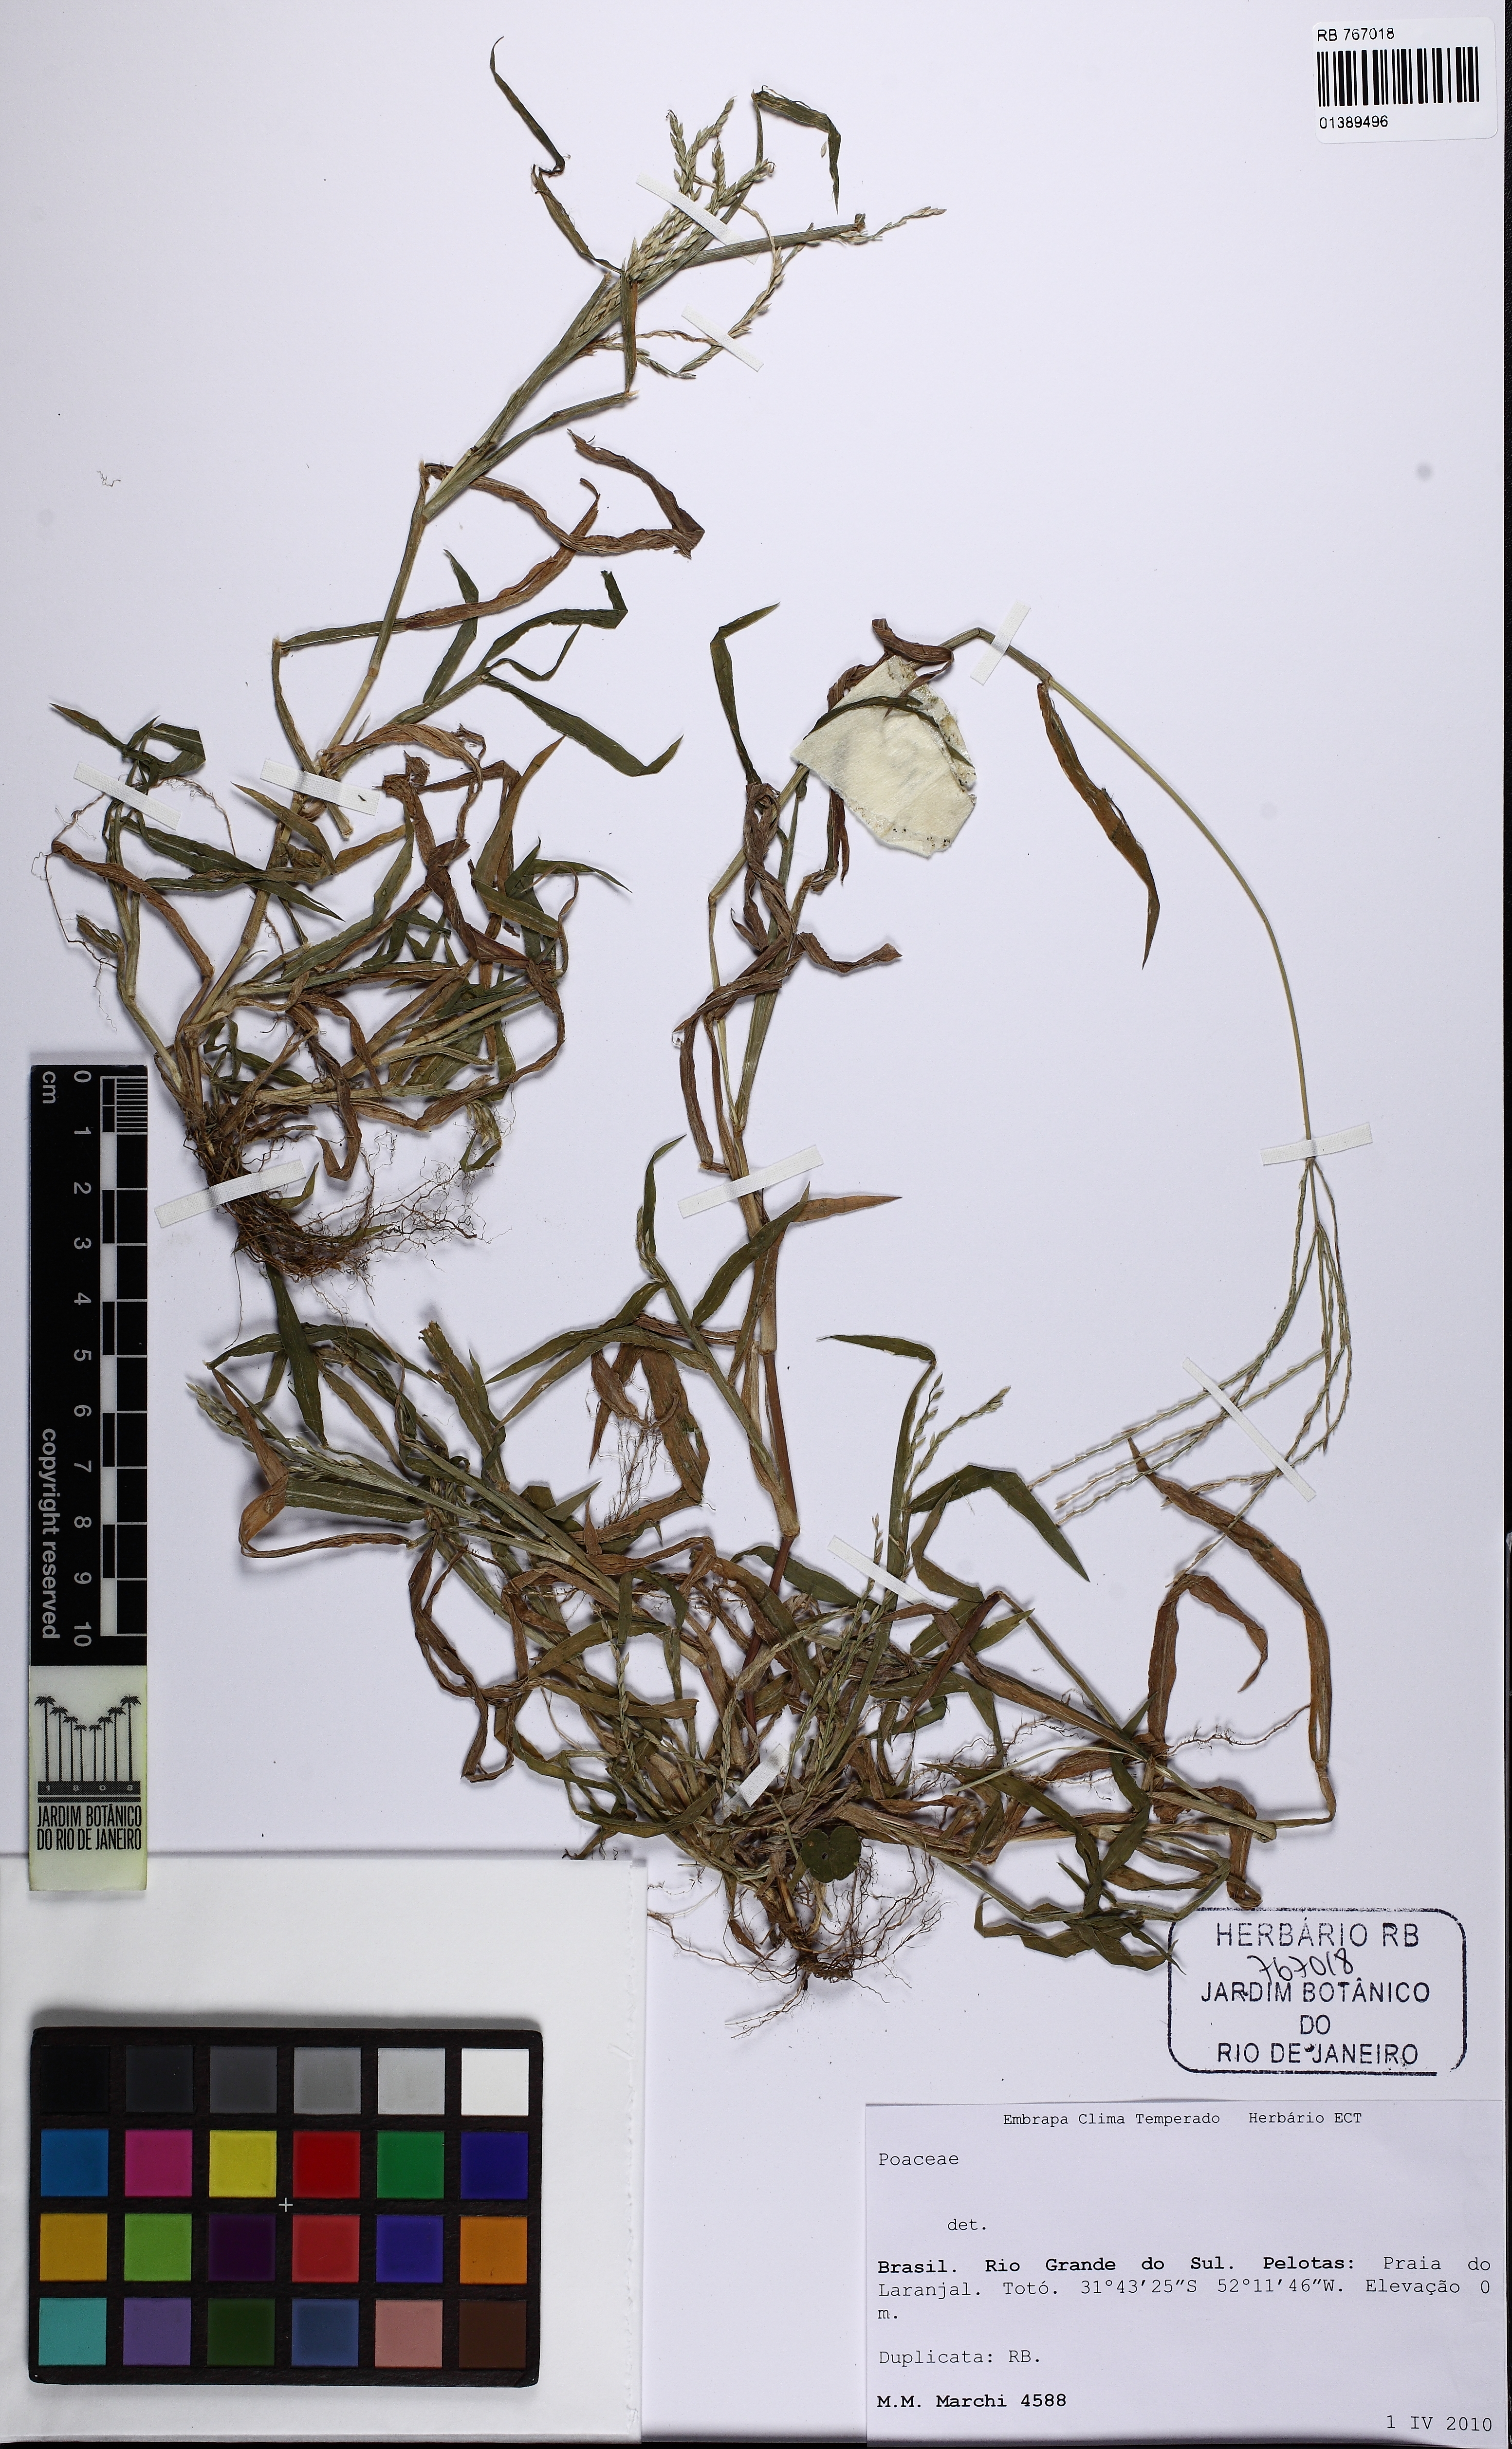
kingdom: Plantae
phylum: Tracheophyta
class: Liliopsida
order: Poales
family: Poaceae
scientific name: Poaceae
